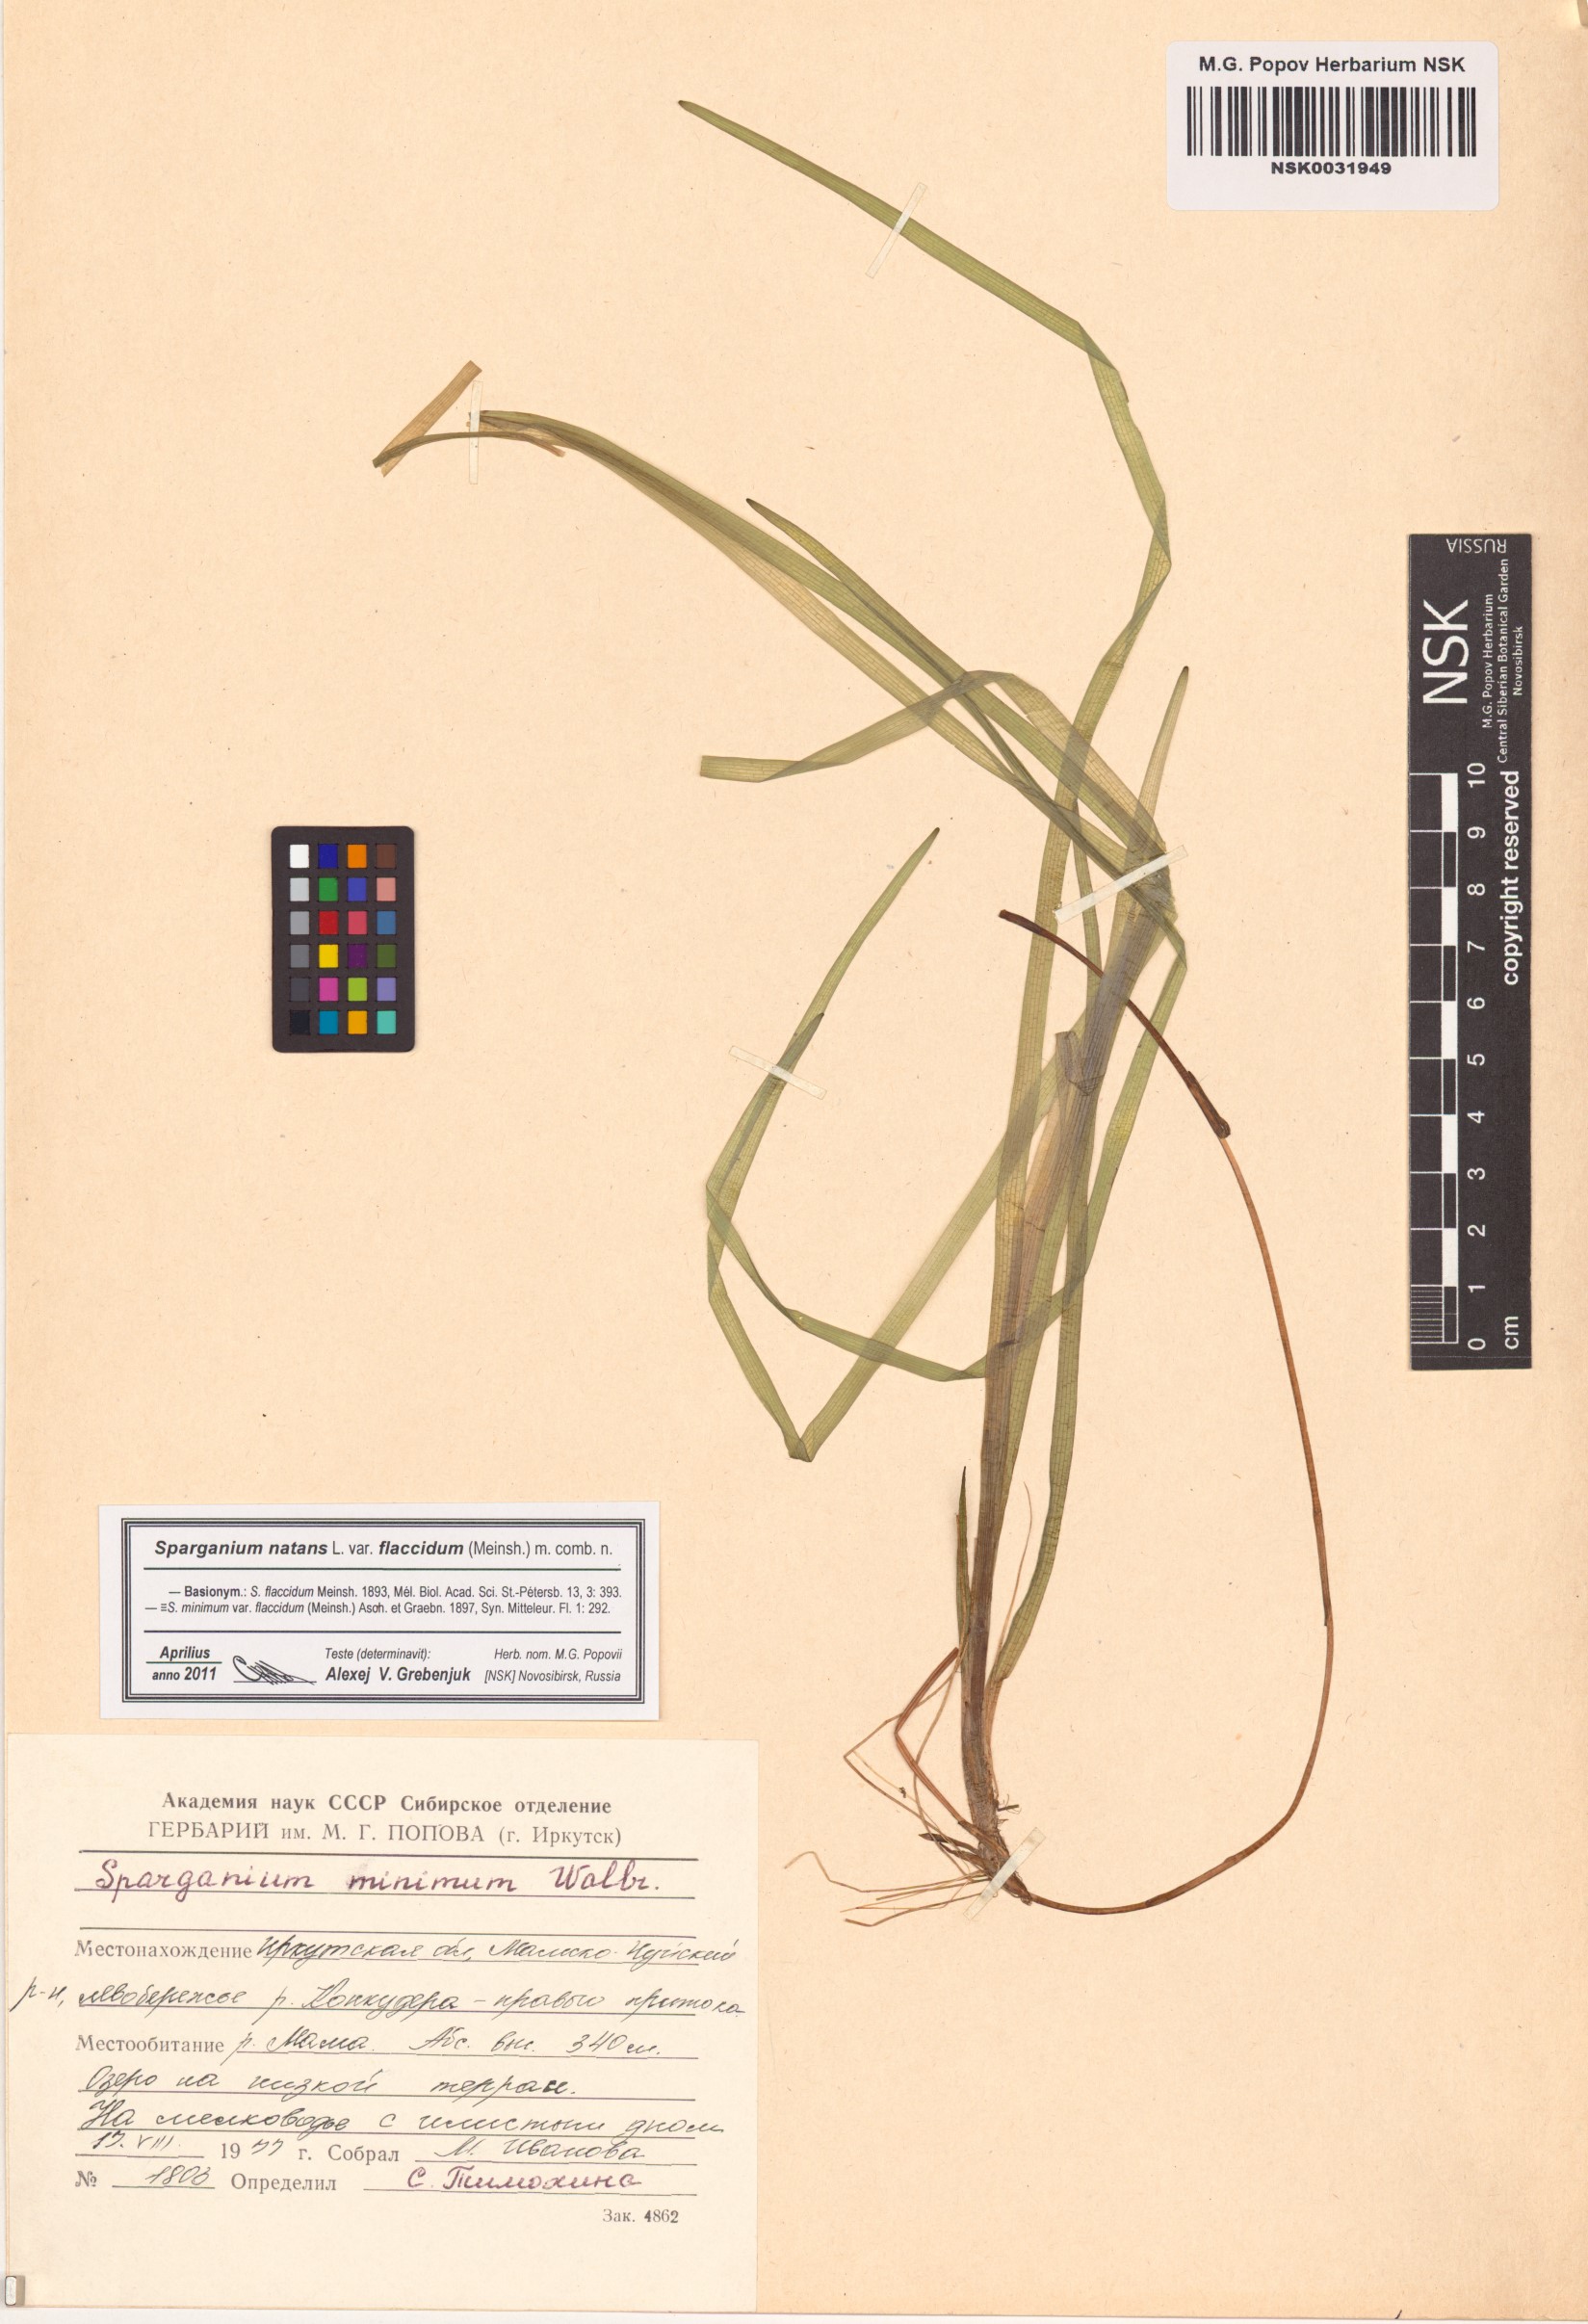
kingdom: Plantae
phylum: Tracheophyta
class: Liliopsida
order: Poales
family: Typhaceae
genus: Sparganium
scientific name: Sparganium natans
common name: Least bur-reed
